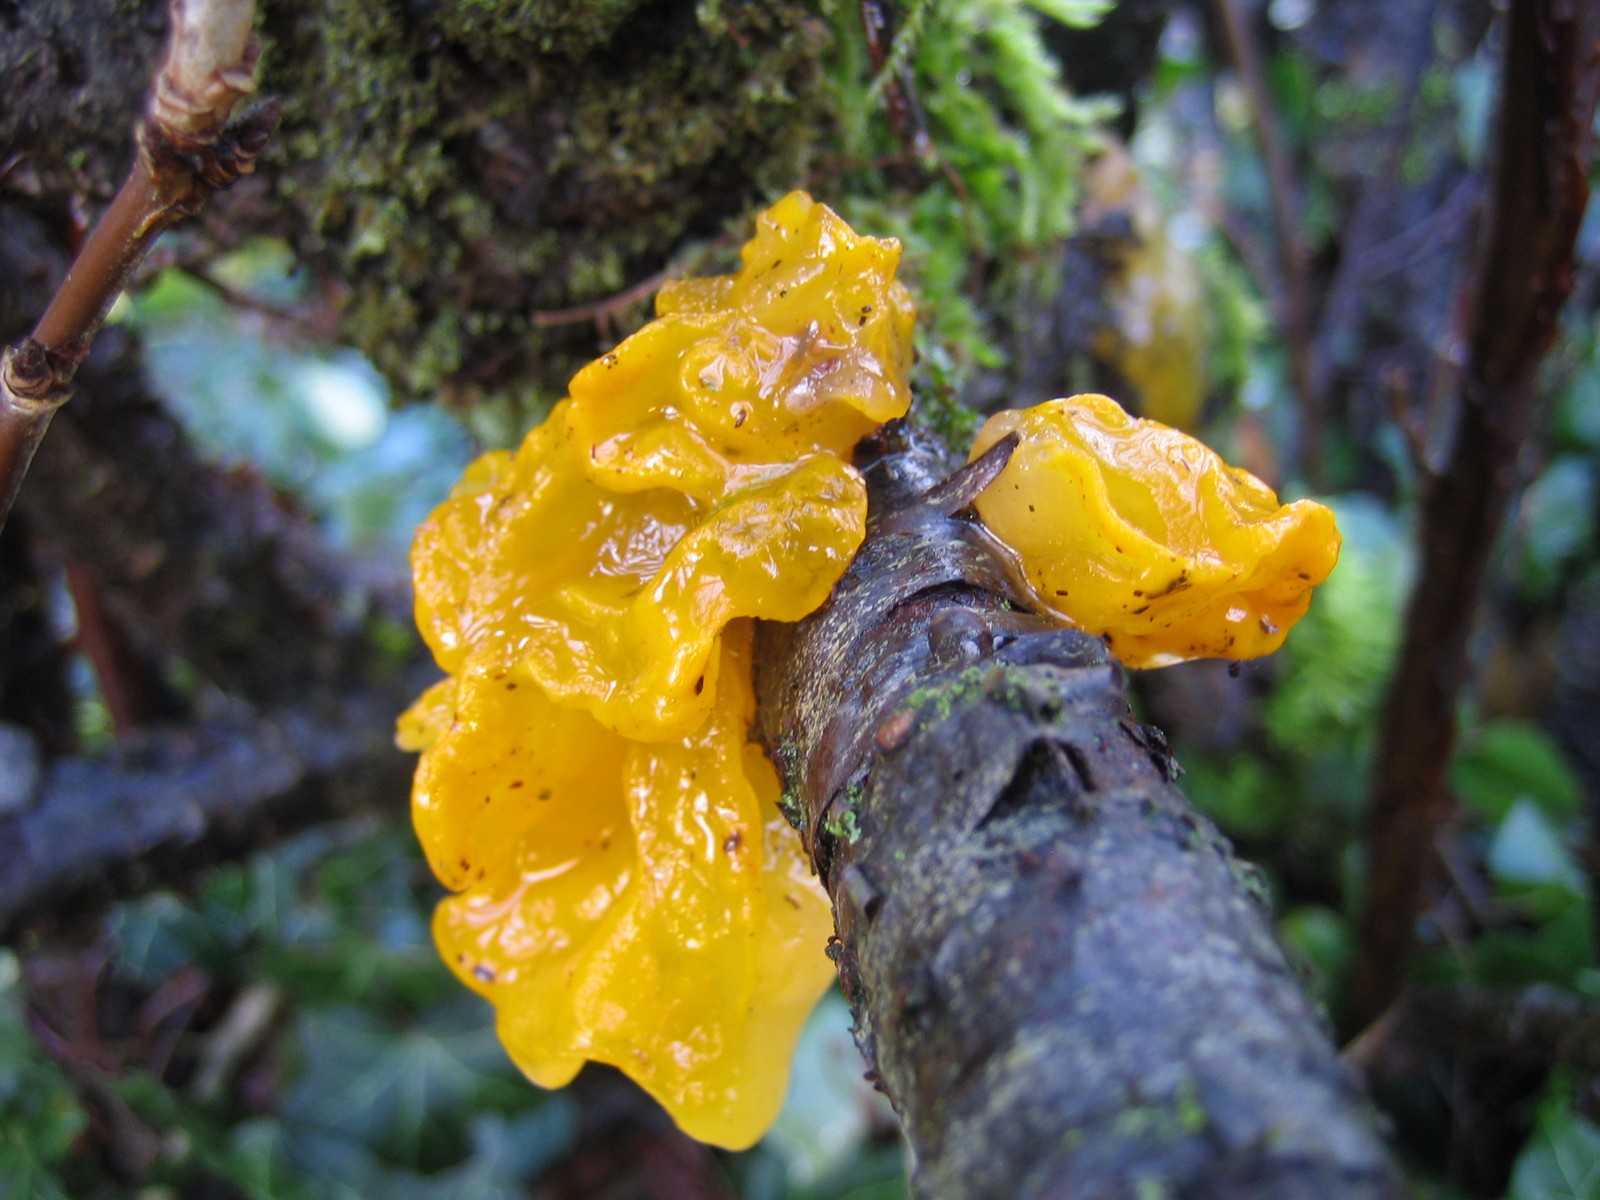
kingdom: Fungi
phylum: Basidiomycota
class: Tremellomycetes
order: Tremellales
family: Tremellaceae
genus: Tremella
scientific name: Tremella mesenterica
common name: gul bævresvamp
